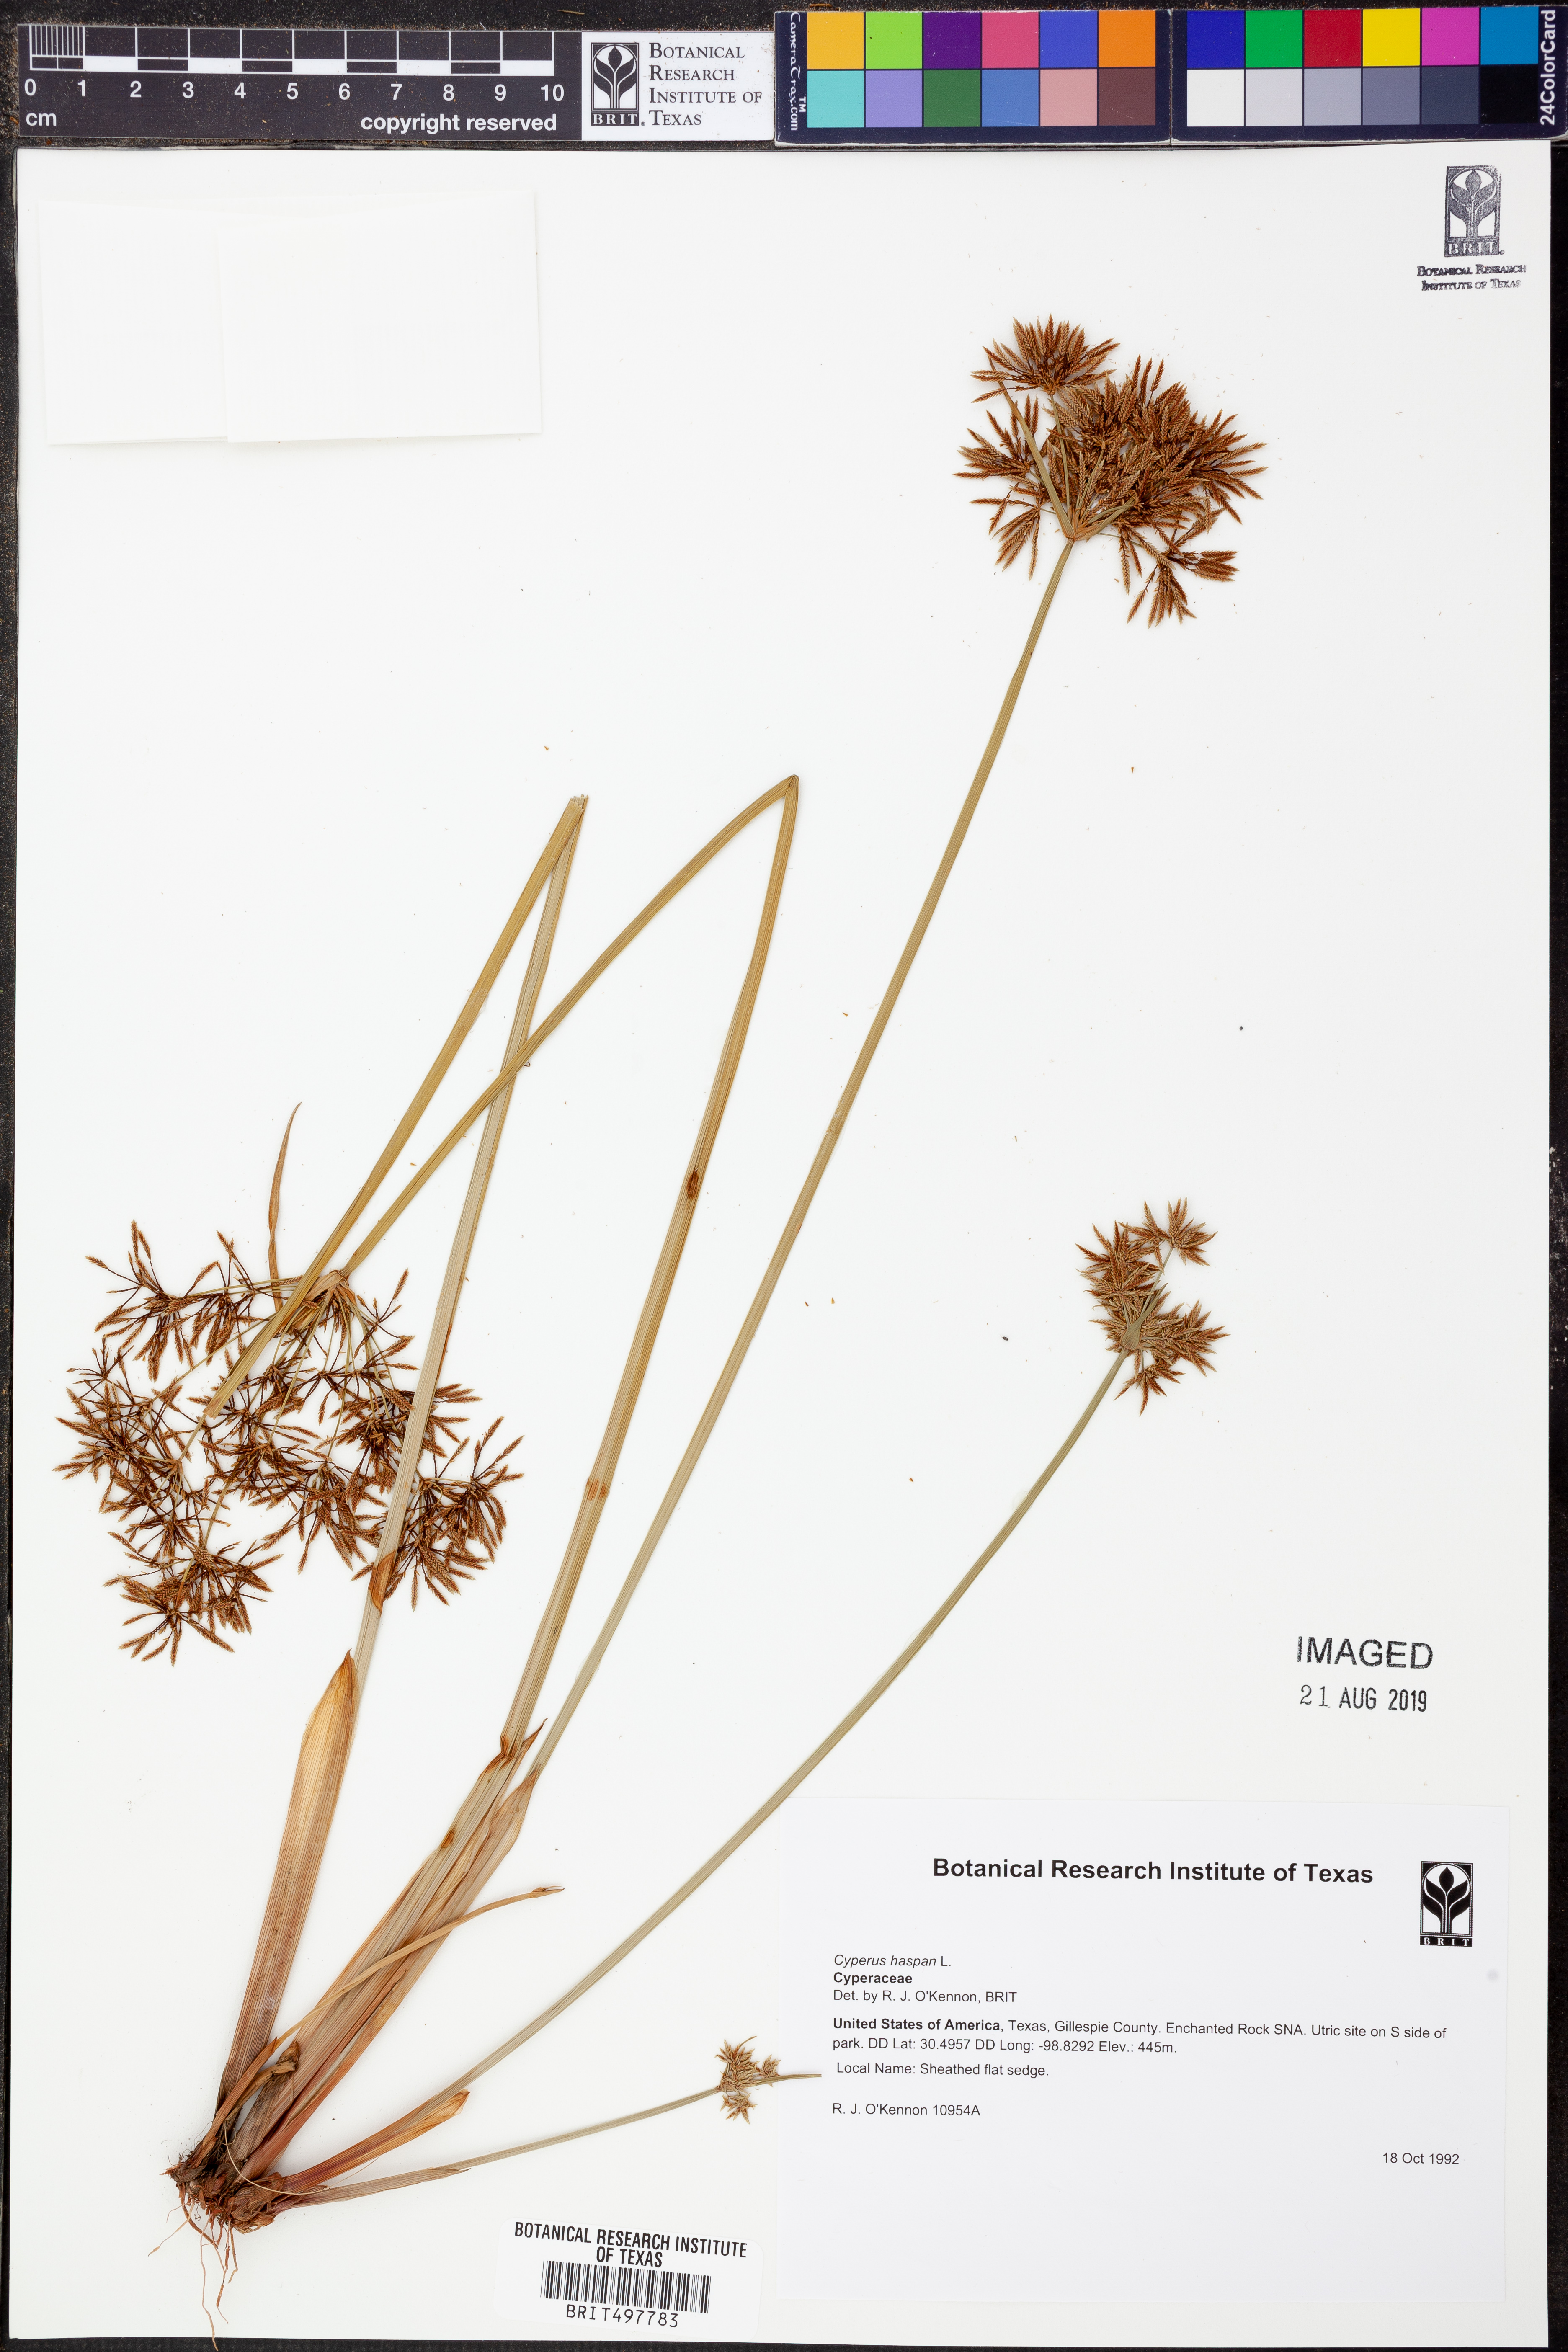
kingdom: Plantae
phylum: Tracheophyta
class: Liliopsida
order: Poales
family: Cyperaceae
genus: Cyperus
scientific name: Cyperus haspan
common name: Haspan flatsedge
